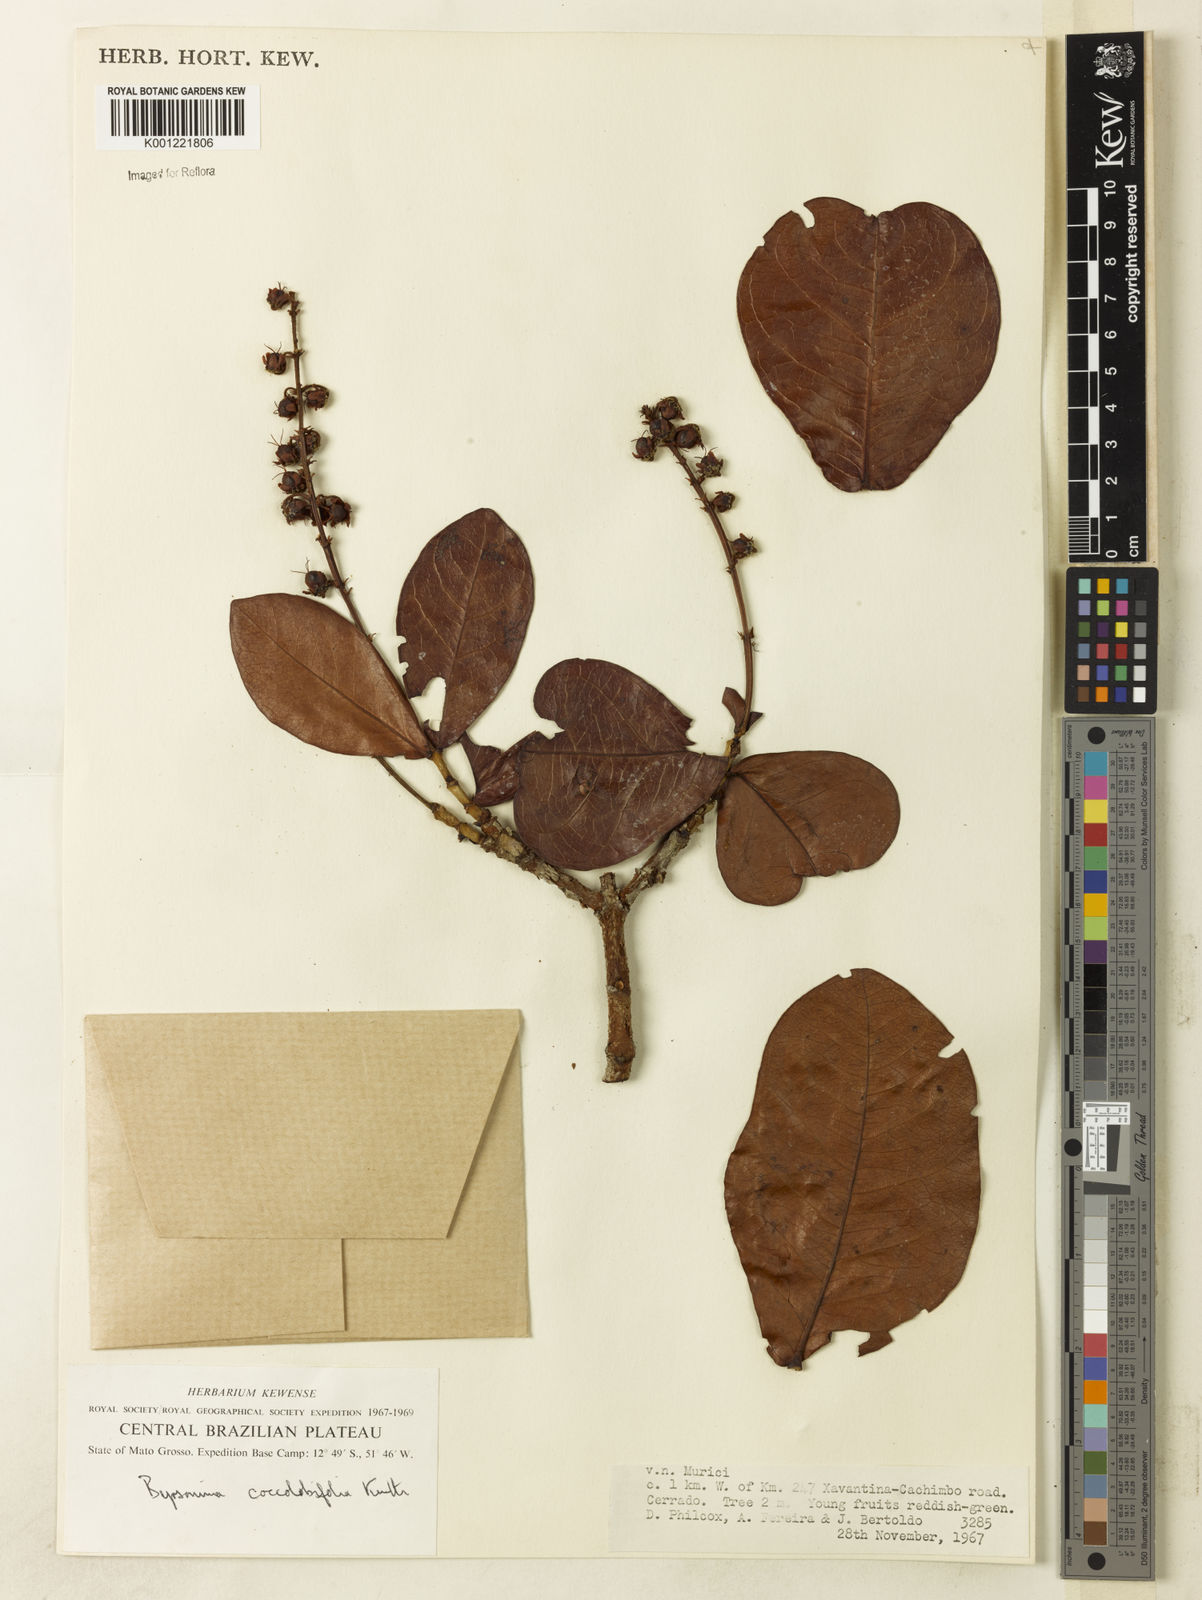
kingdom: Plantae
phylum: Tracheophyta
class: Magnoliopsida
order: Malpighiales
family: Malpighiaceae
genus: Byrsonima
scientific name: Byrsonima coccolobifolia
